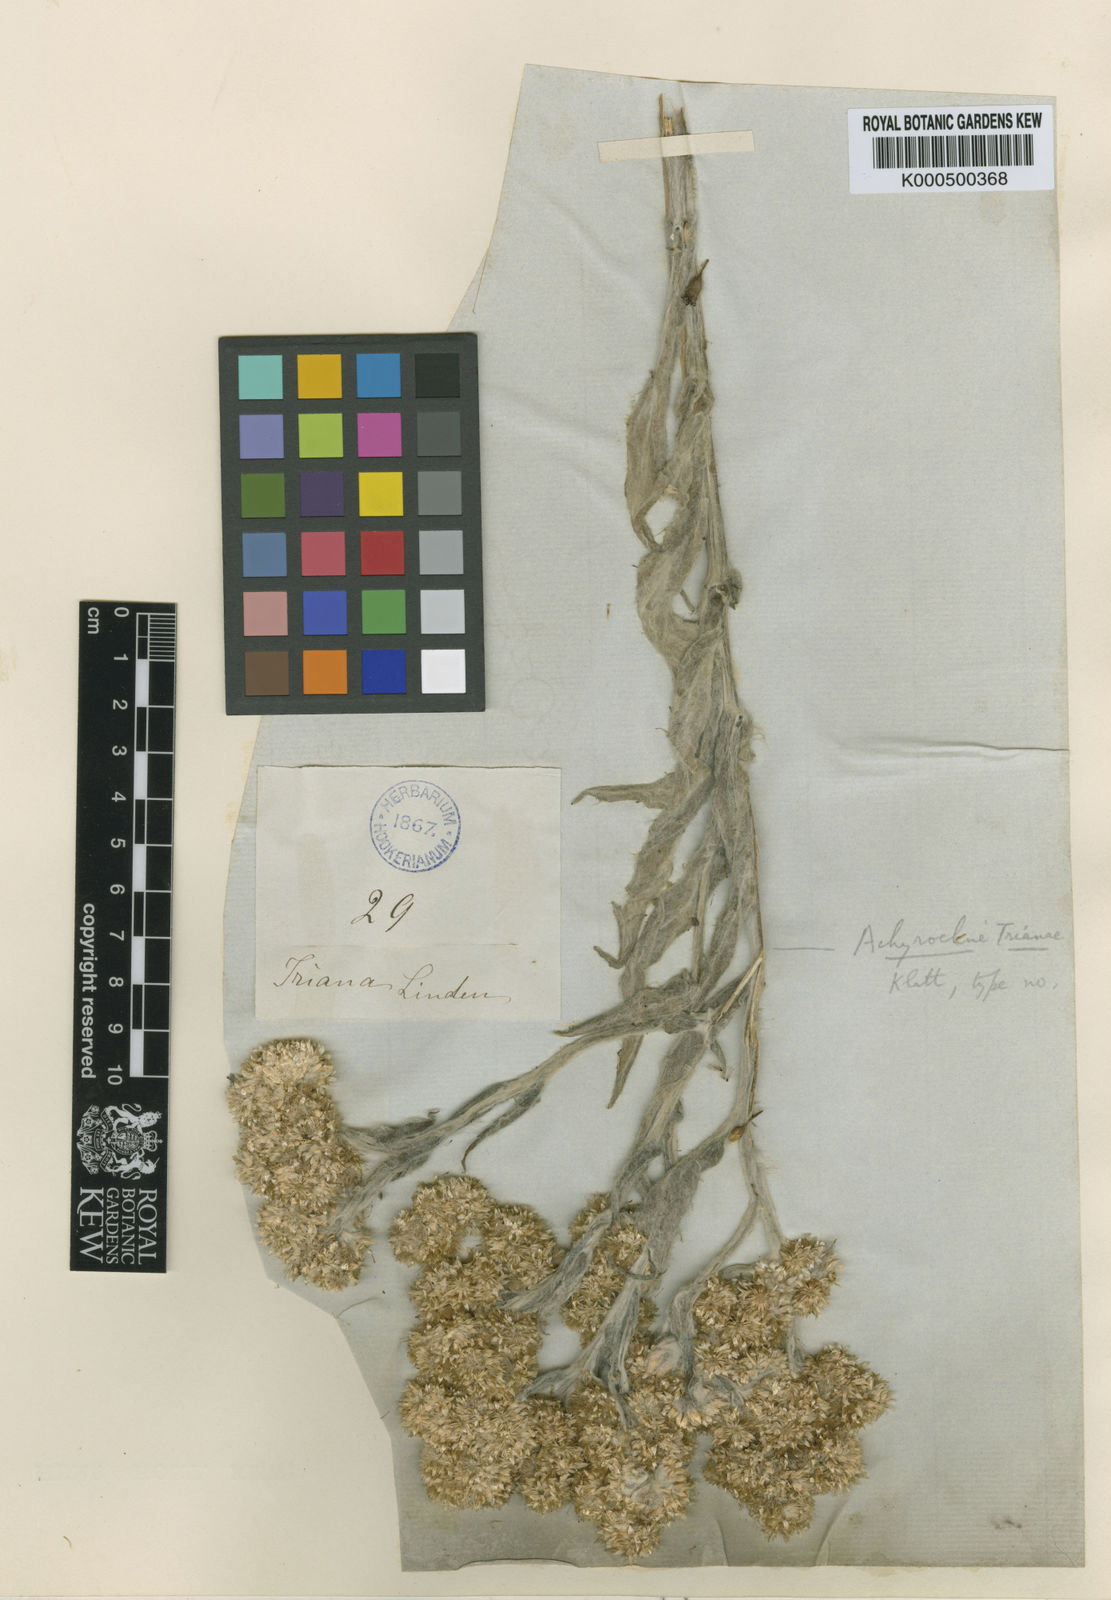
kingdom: Plantae
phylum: Tracheophyta
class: Magnoliopsida
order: Asterales
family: Asteraceae
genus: Achyrocline
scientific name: Achyrocline trianae
